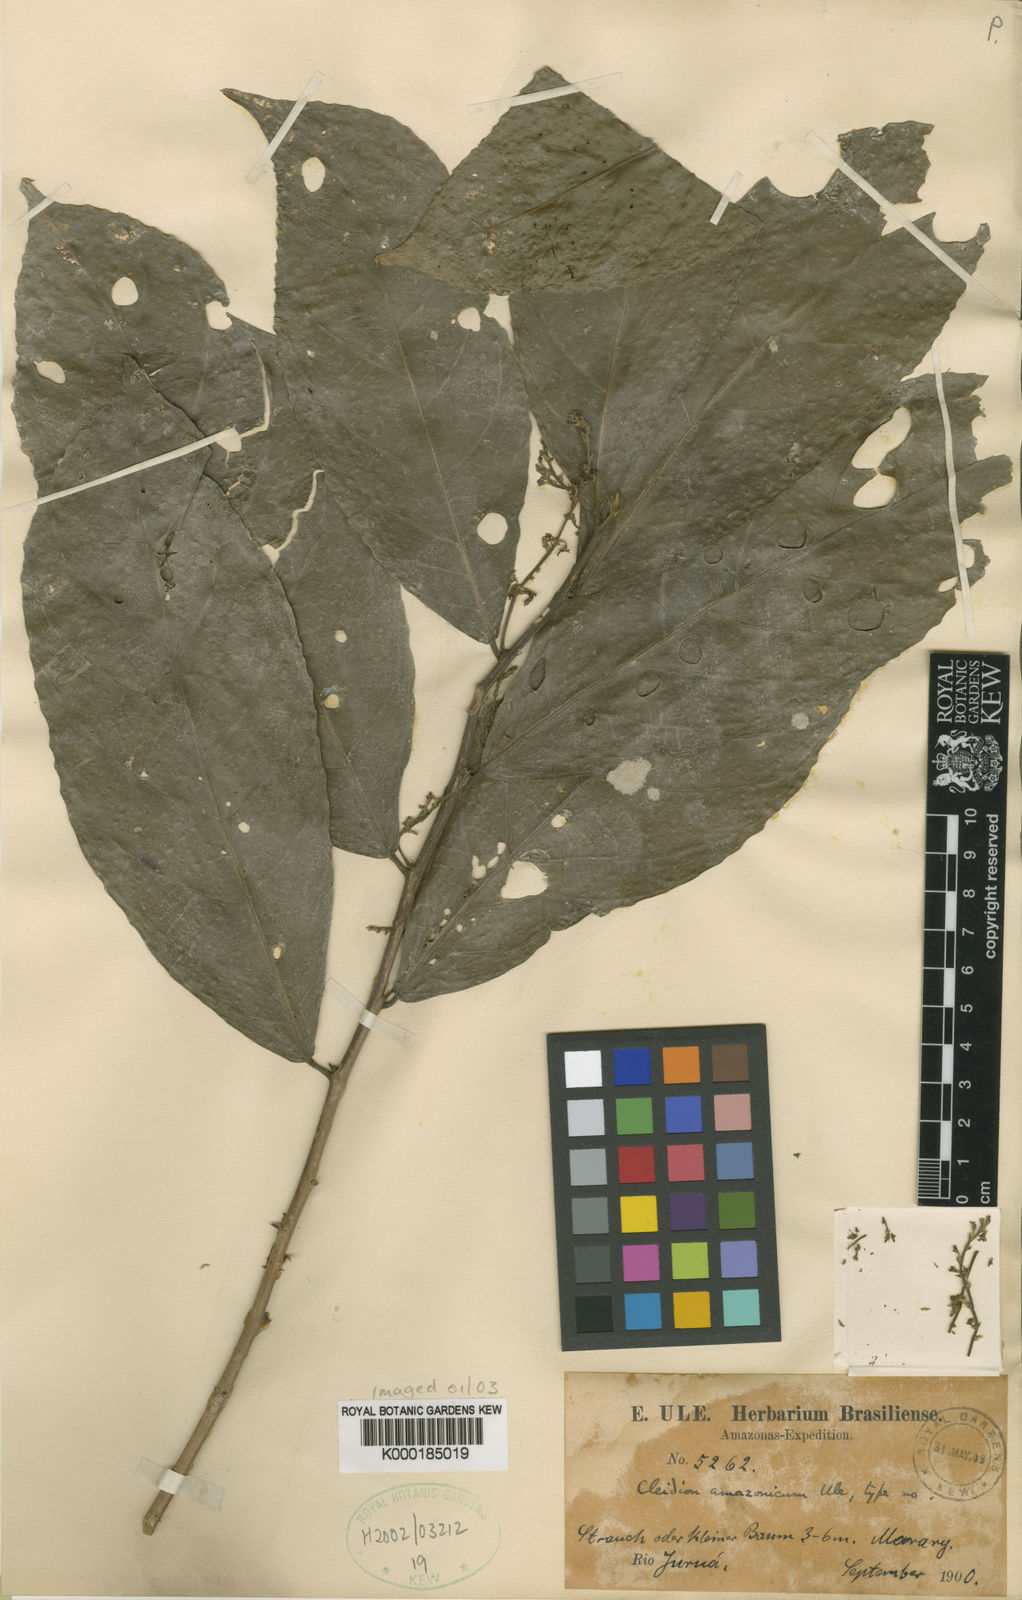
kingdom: Plantae
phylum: Tracheophyta
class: Magnoliopsida
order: Malpighiales
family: Euphorbiaceae
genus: Cleidion
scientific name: Cleidion amazonicum
